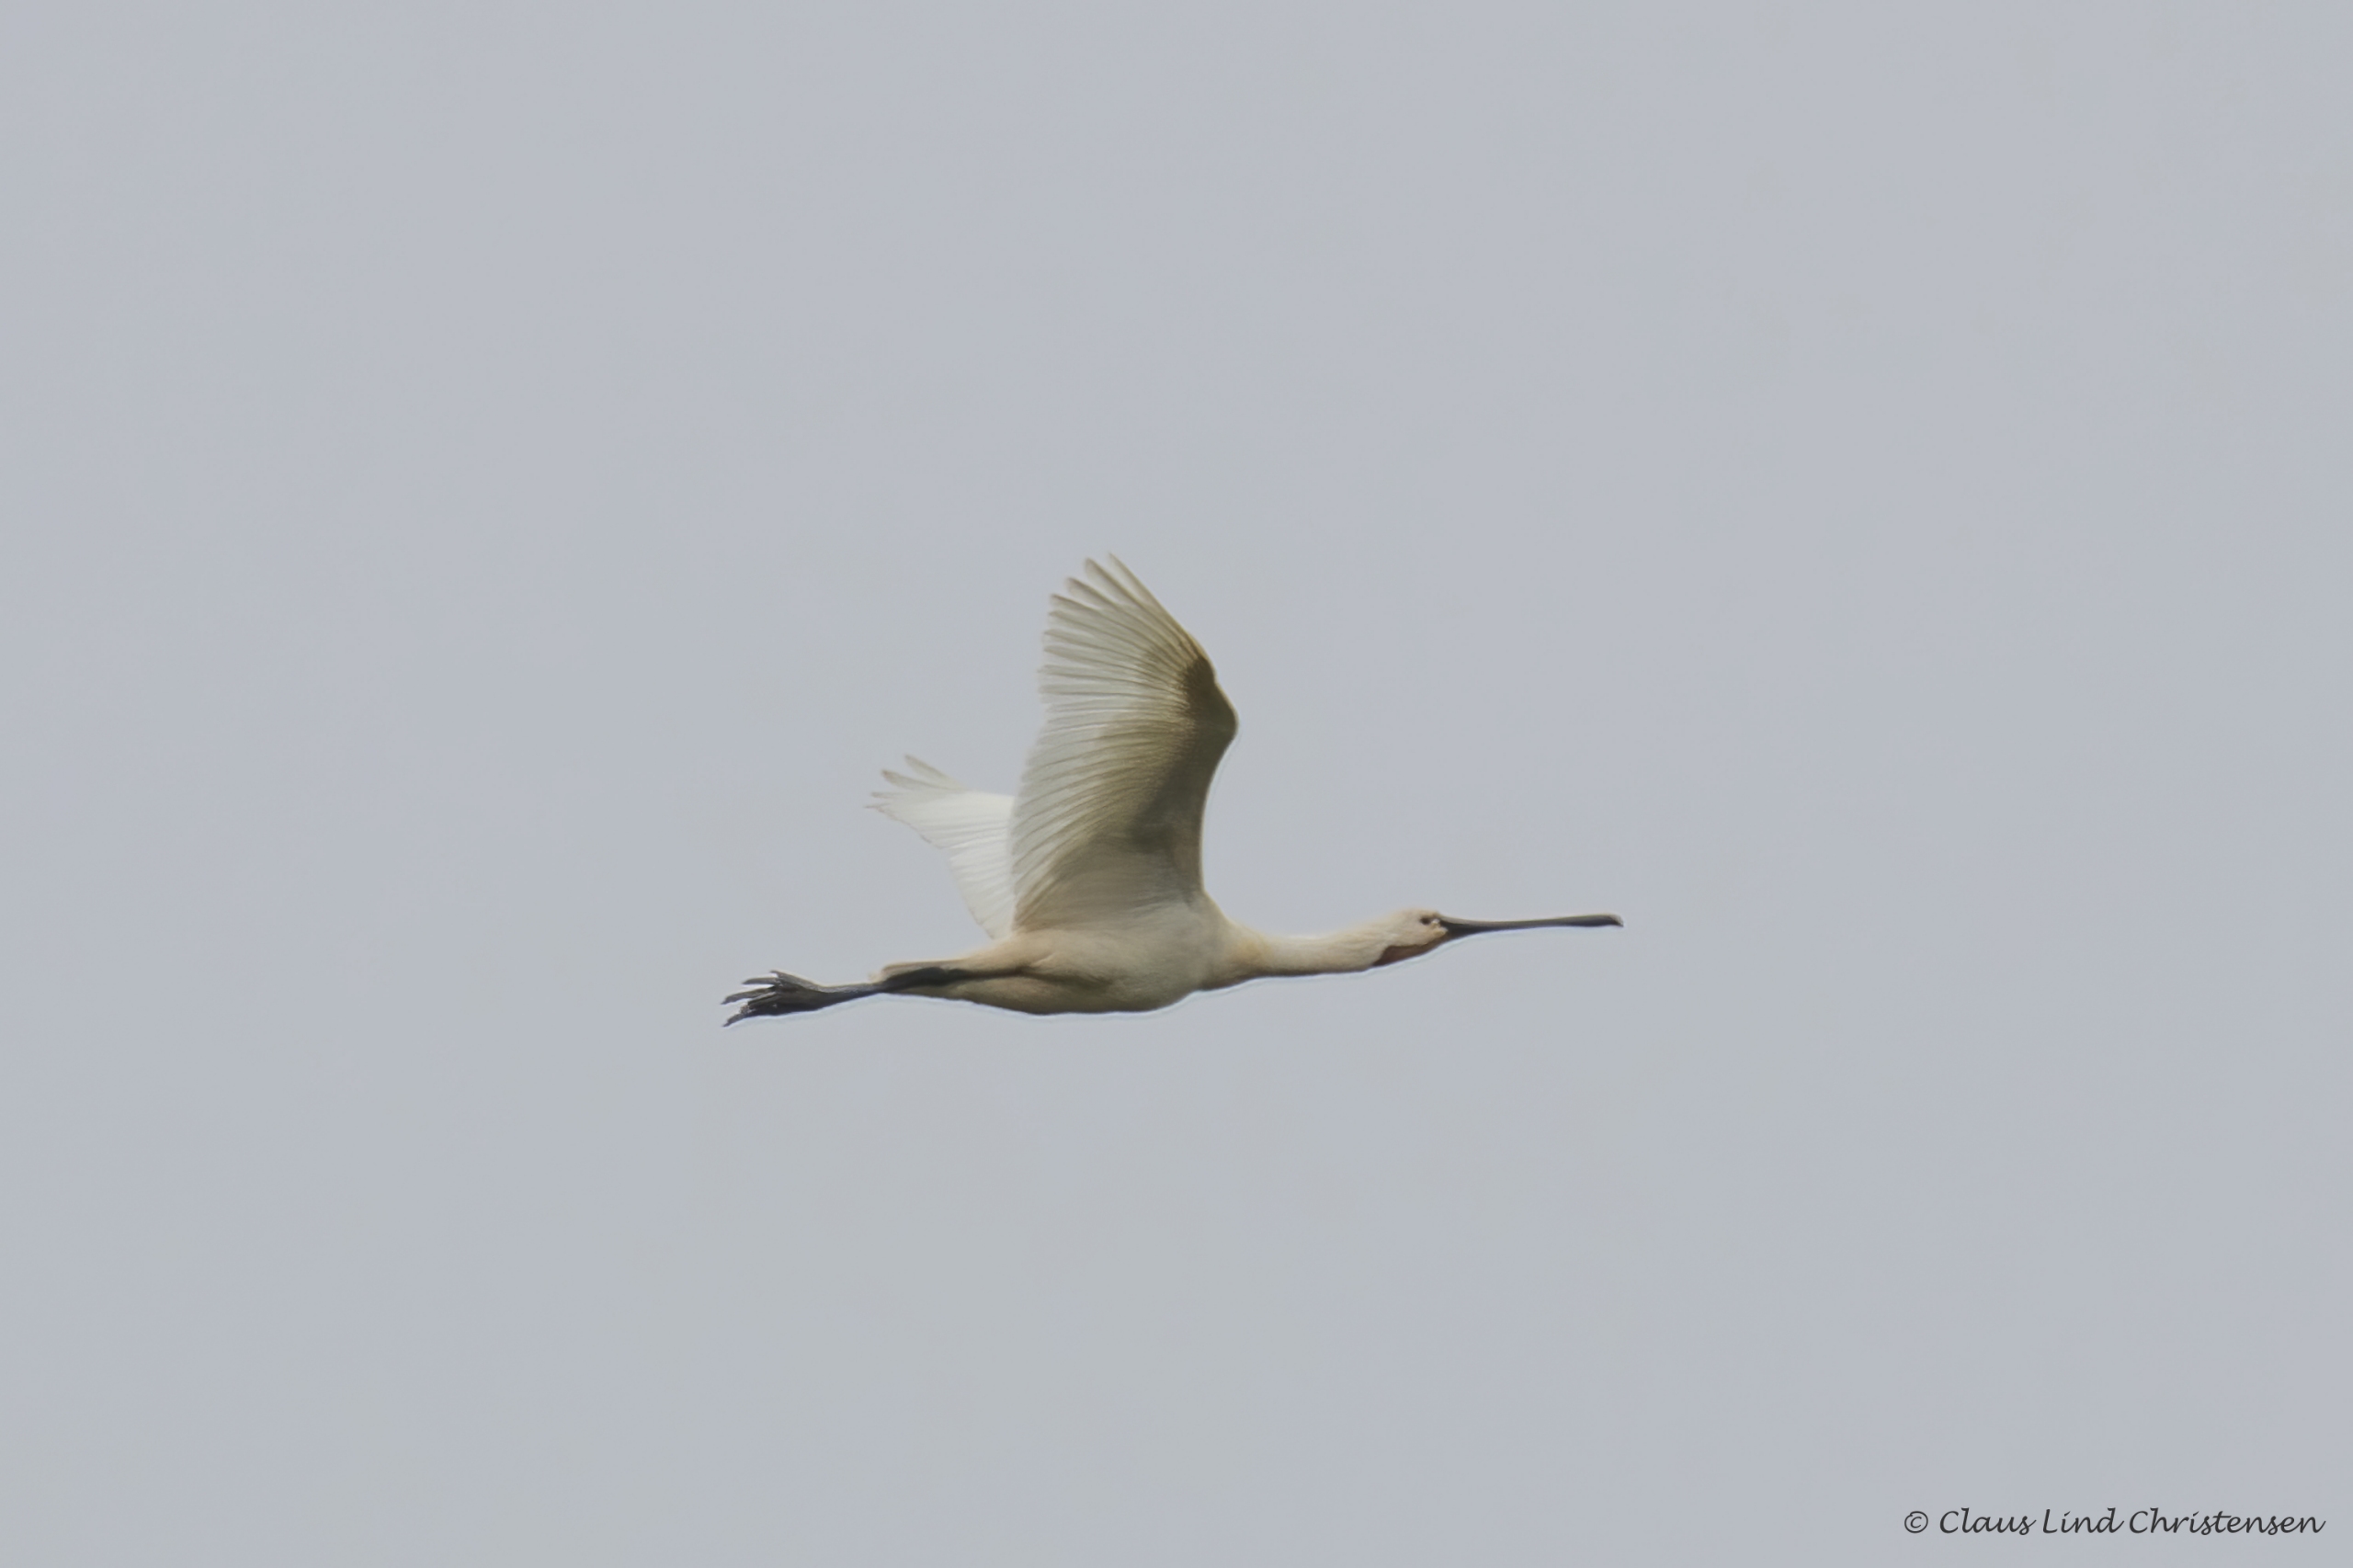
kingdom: Animalia
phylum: Chordata
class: Aves
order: Pelecaniformes
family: Threskiornithidae
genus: Platalea
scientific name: Platalea leucorodia
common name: Skestork
